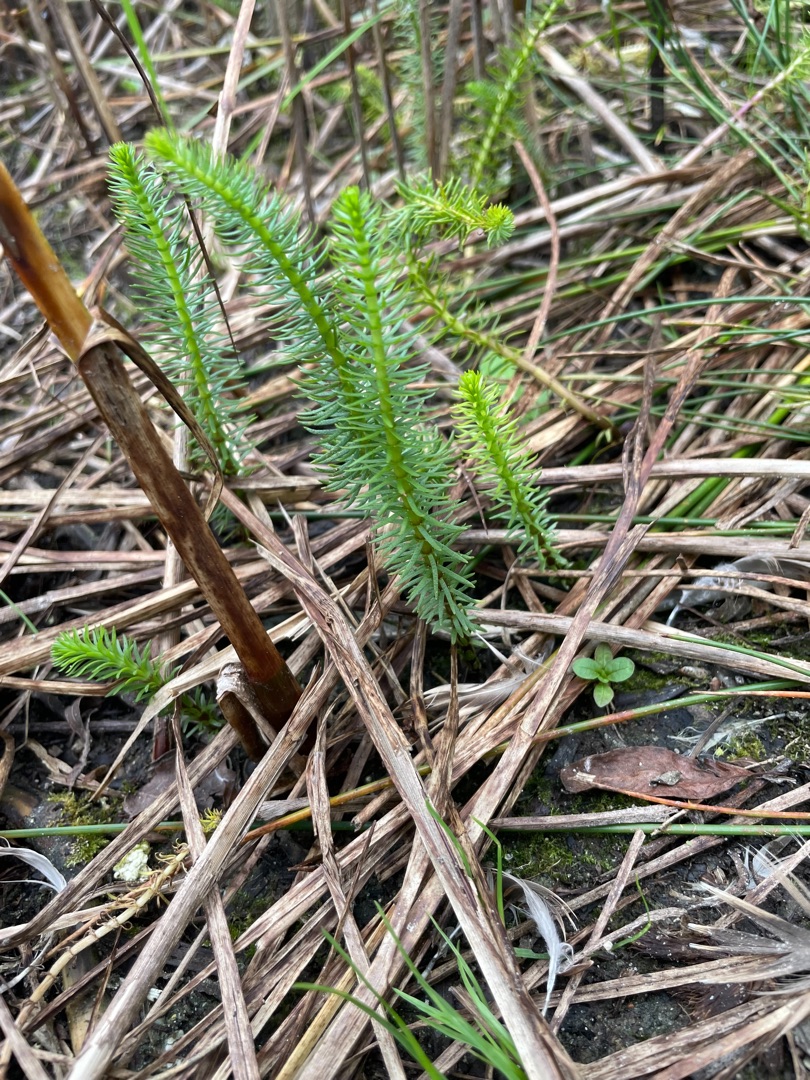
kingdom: Plantae
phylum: Tracheophyta
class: Magnoliopsida
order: Lamiales
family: Plantaginaceae
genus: Hippuris
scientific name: Hippuris vulgaris
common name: Vandspir
